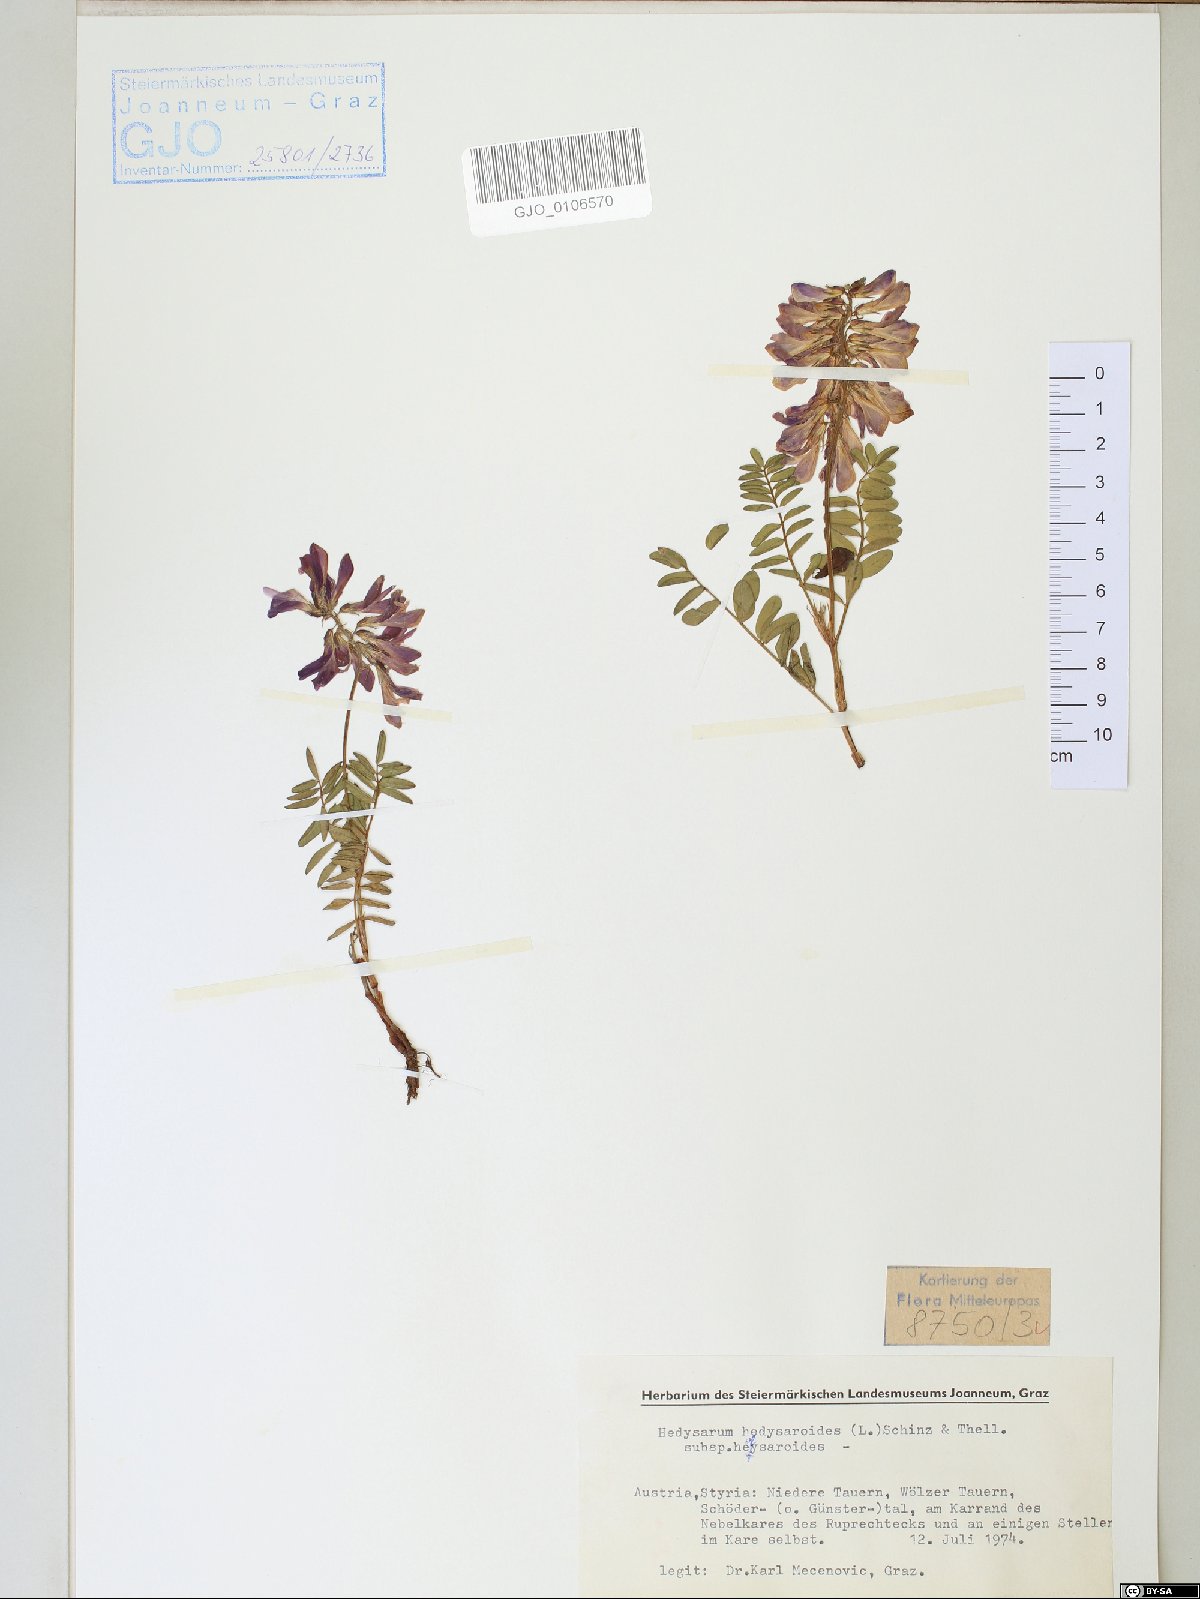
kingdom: Plantae
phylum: Tracheophyta
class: Magnoliopsida
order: Fabales
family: Fabaceae
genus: Hedysarum
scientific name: Hedysarum hedysaroides
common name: Alpine french-honeysuckle
